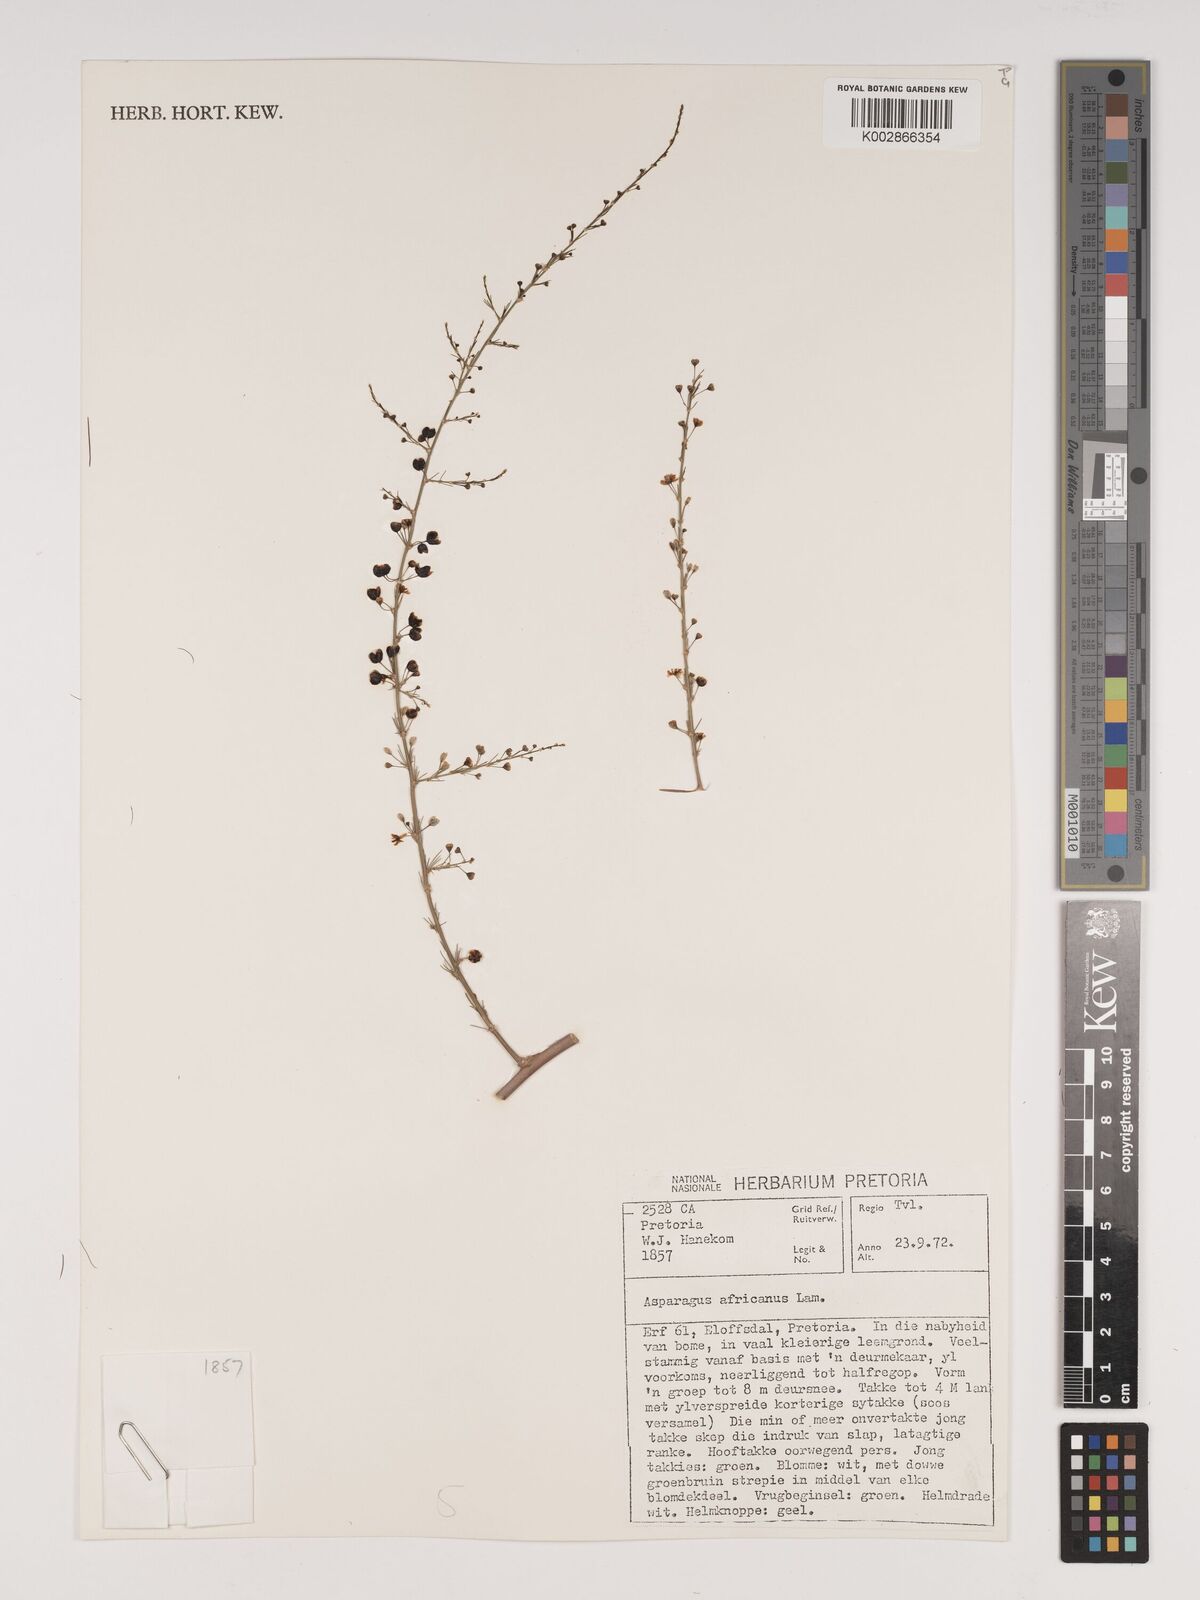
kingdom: Plantae
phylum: Tracheophyta
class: Liliopsida
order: Asparagales
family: Asparagaceae
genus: Asparagus
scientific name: Asparagus africanus
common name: Asparagus-fern
